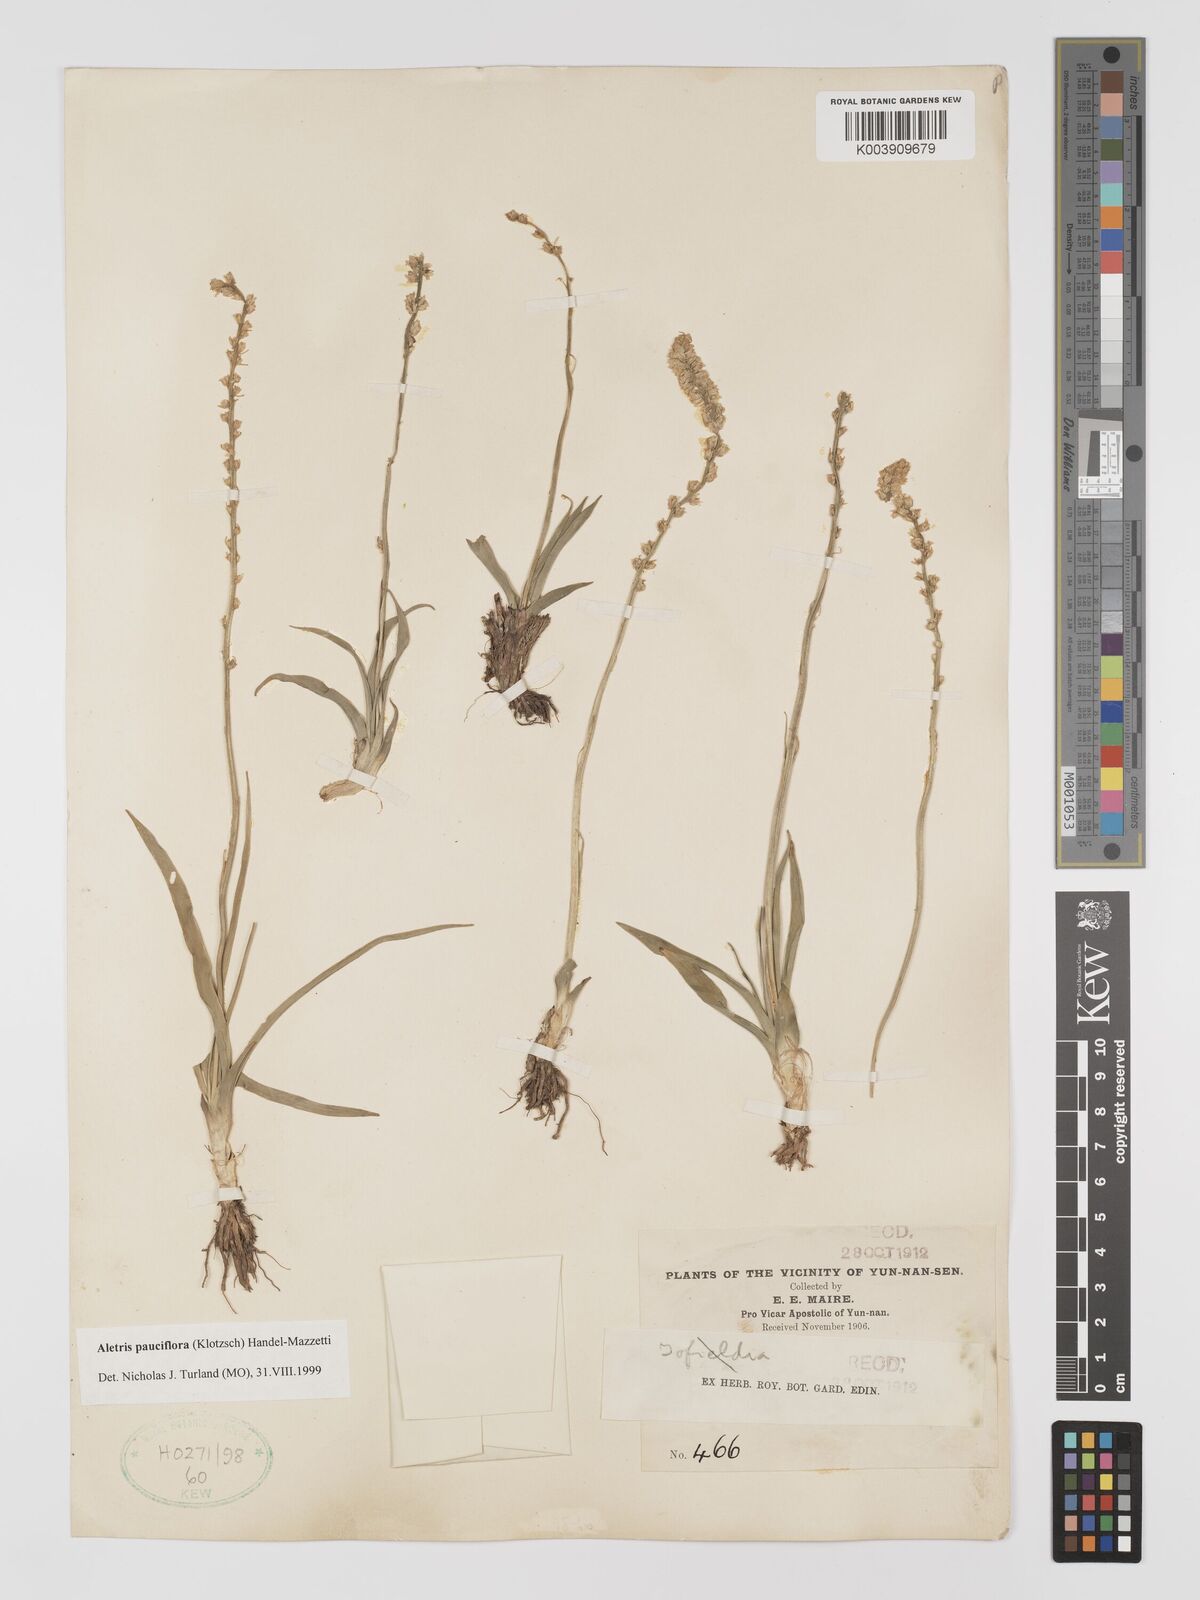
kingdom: Plantae
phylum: Tracheophyta
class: Liliopsida
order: Dioscoreales
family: Nartheciaceae
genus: Aletris
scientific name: Aletris pauciflora
